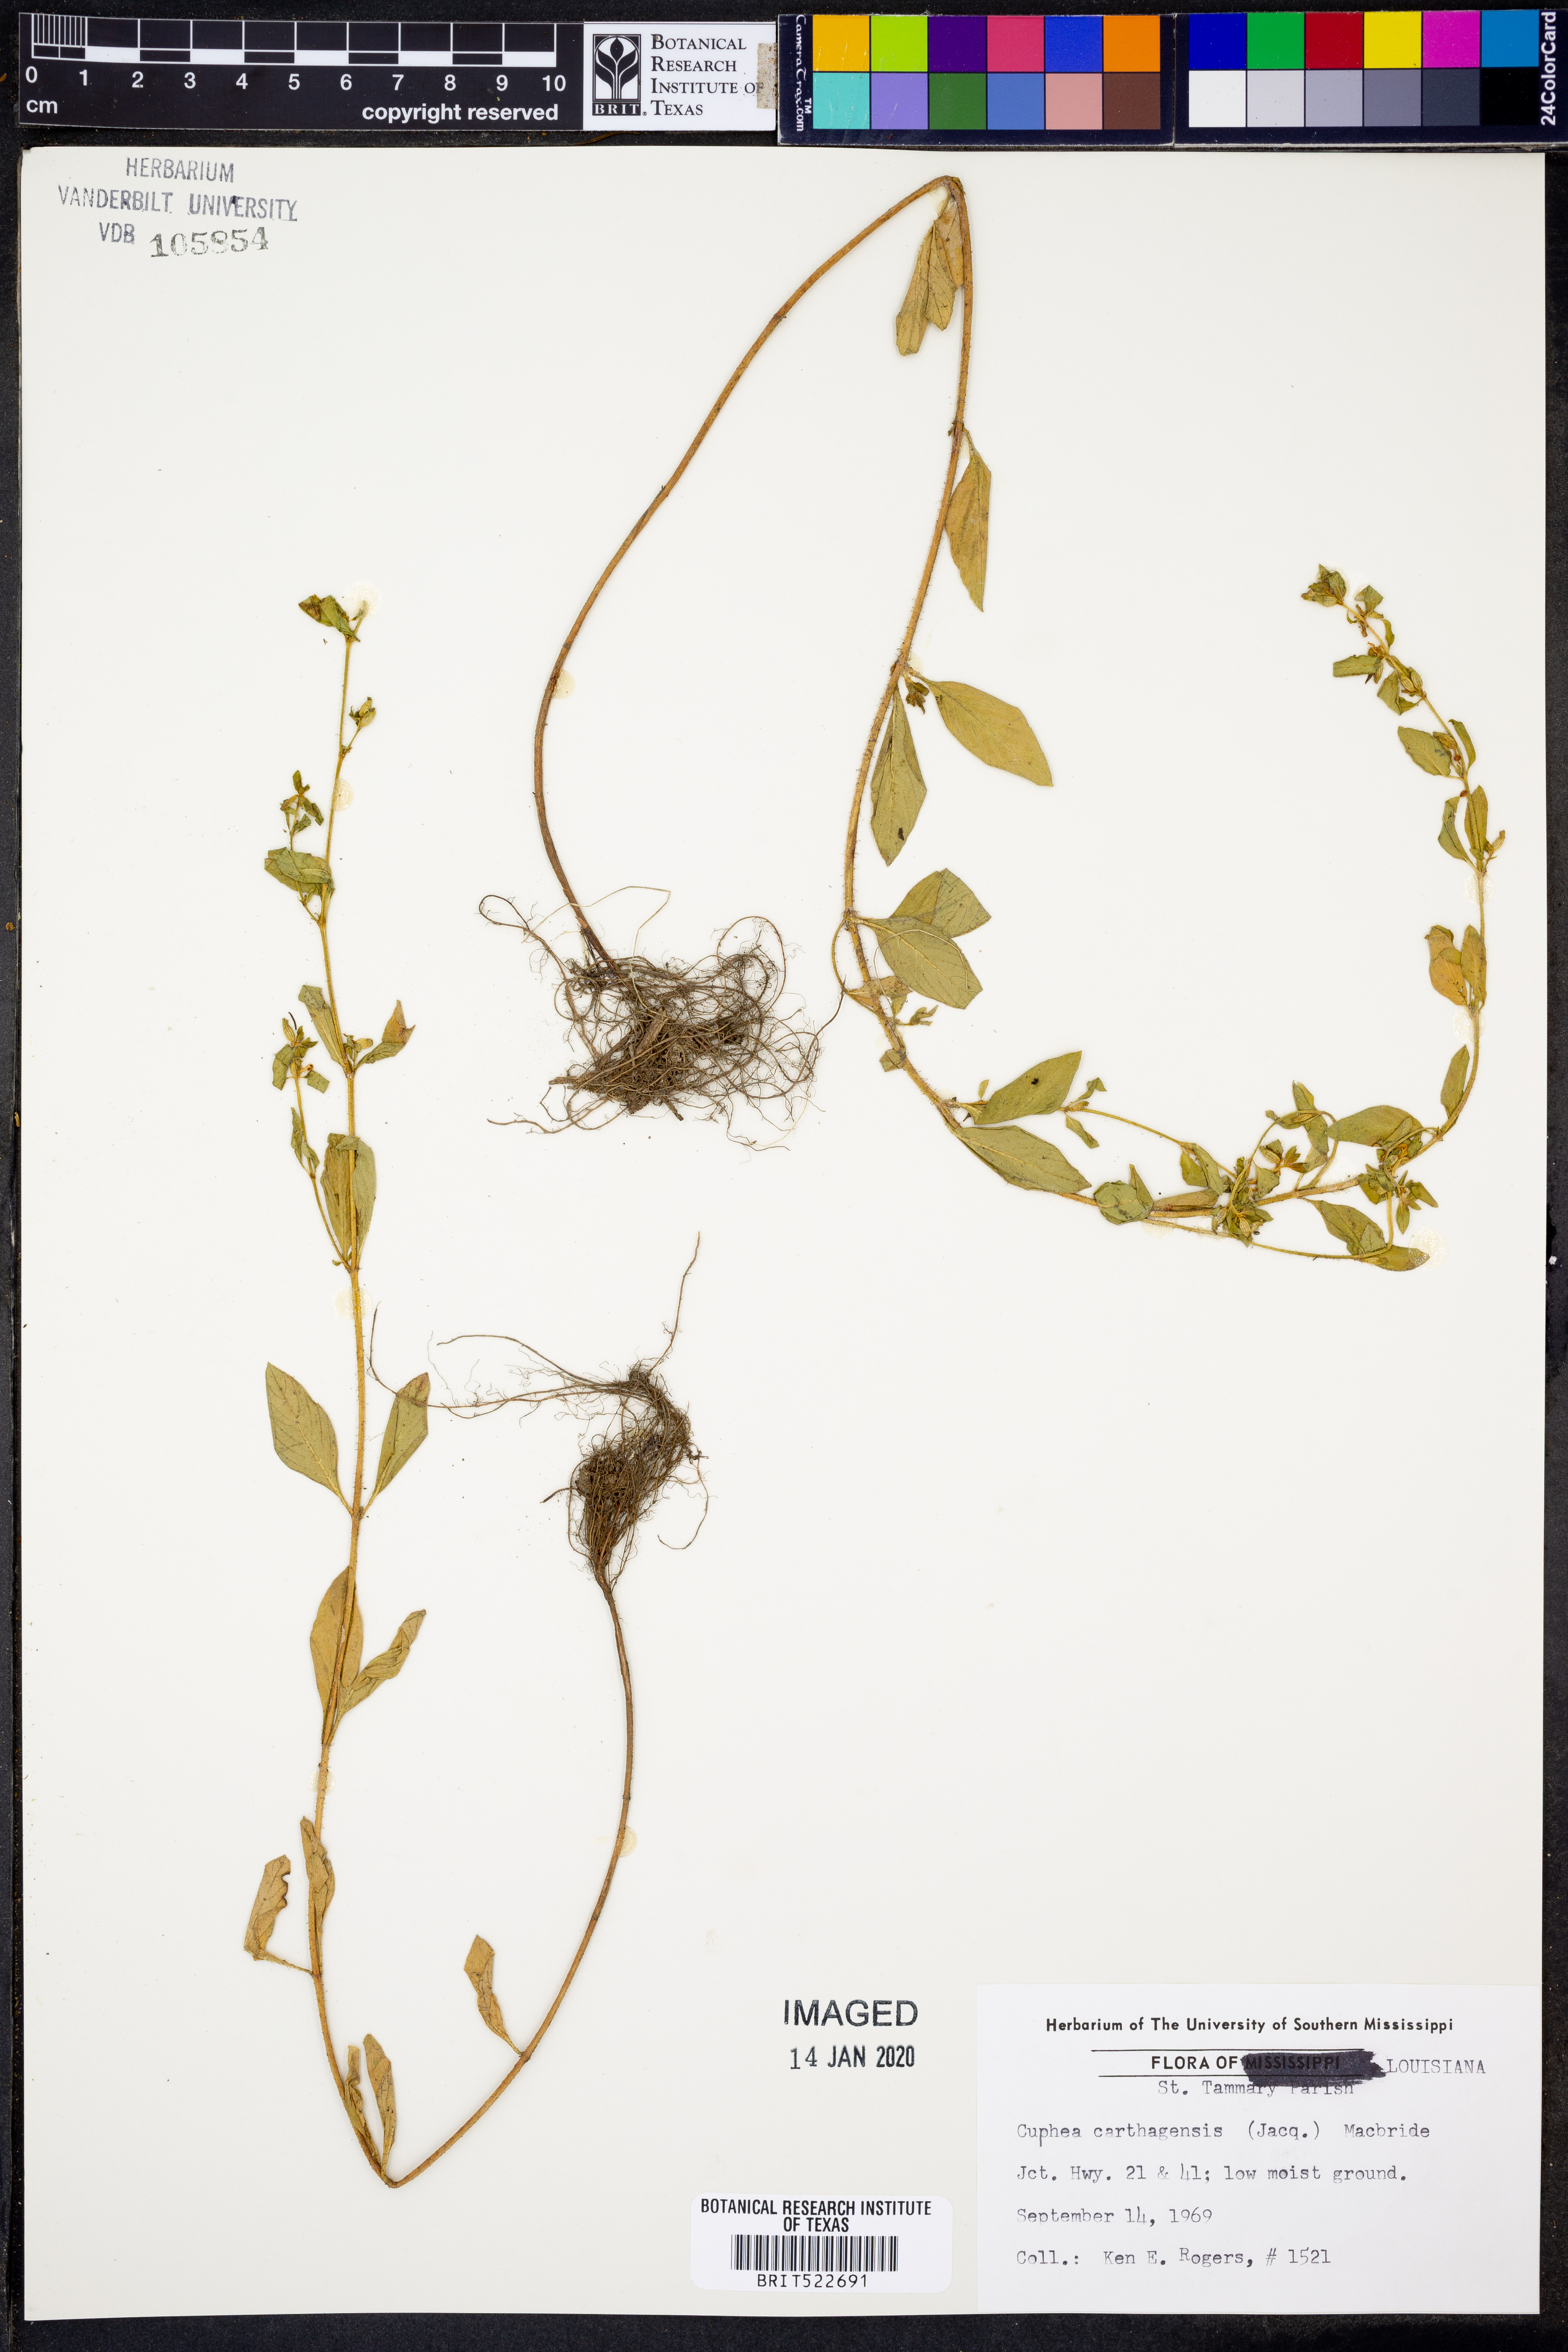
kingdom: Plantae
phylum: Tracheophyta
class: Magnoliopsida
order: Myrtales
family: Lythraceae
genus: Cuphea
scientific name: Cuphea carthagenensis
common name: Colombian waxweed
